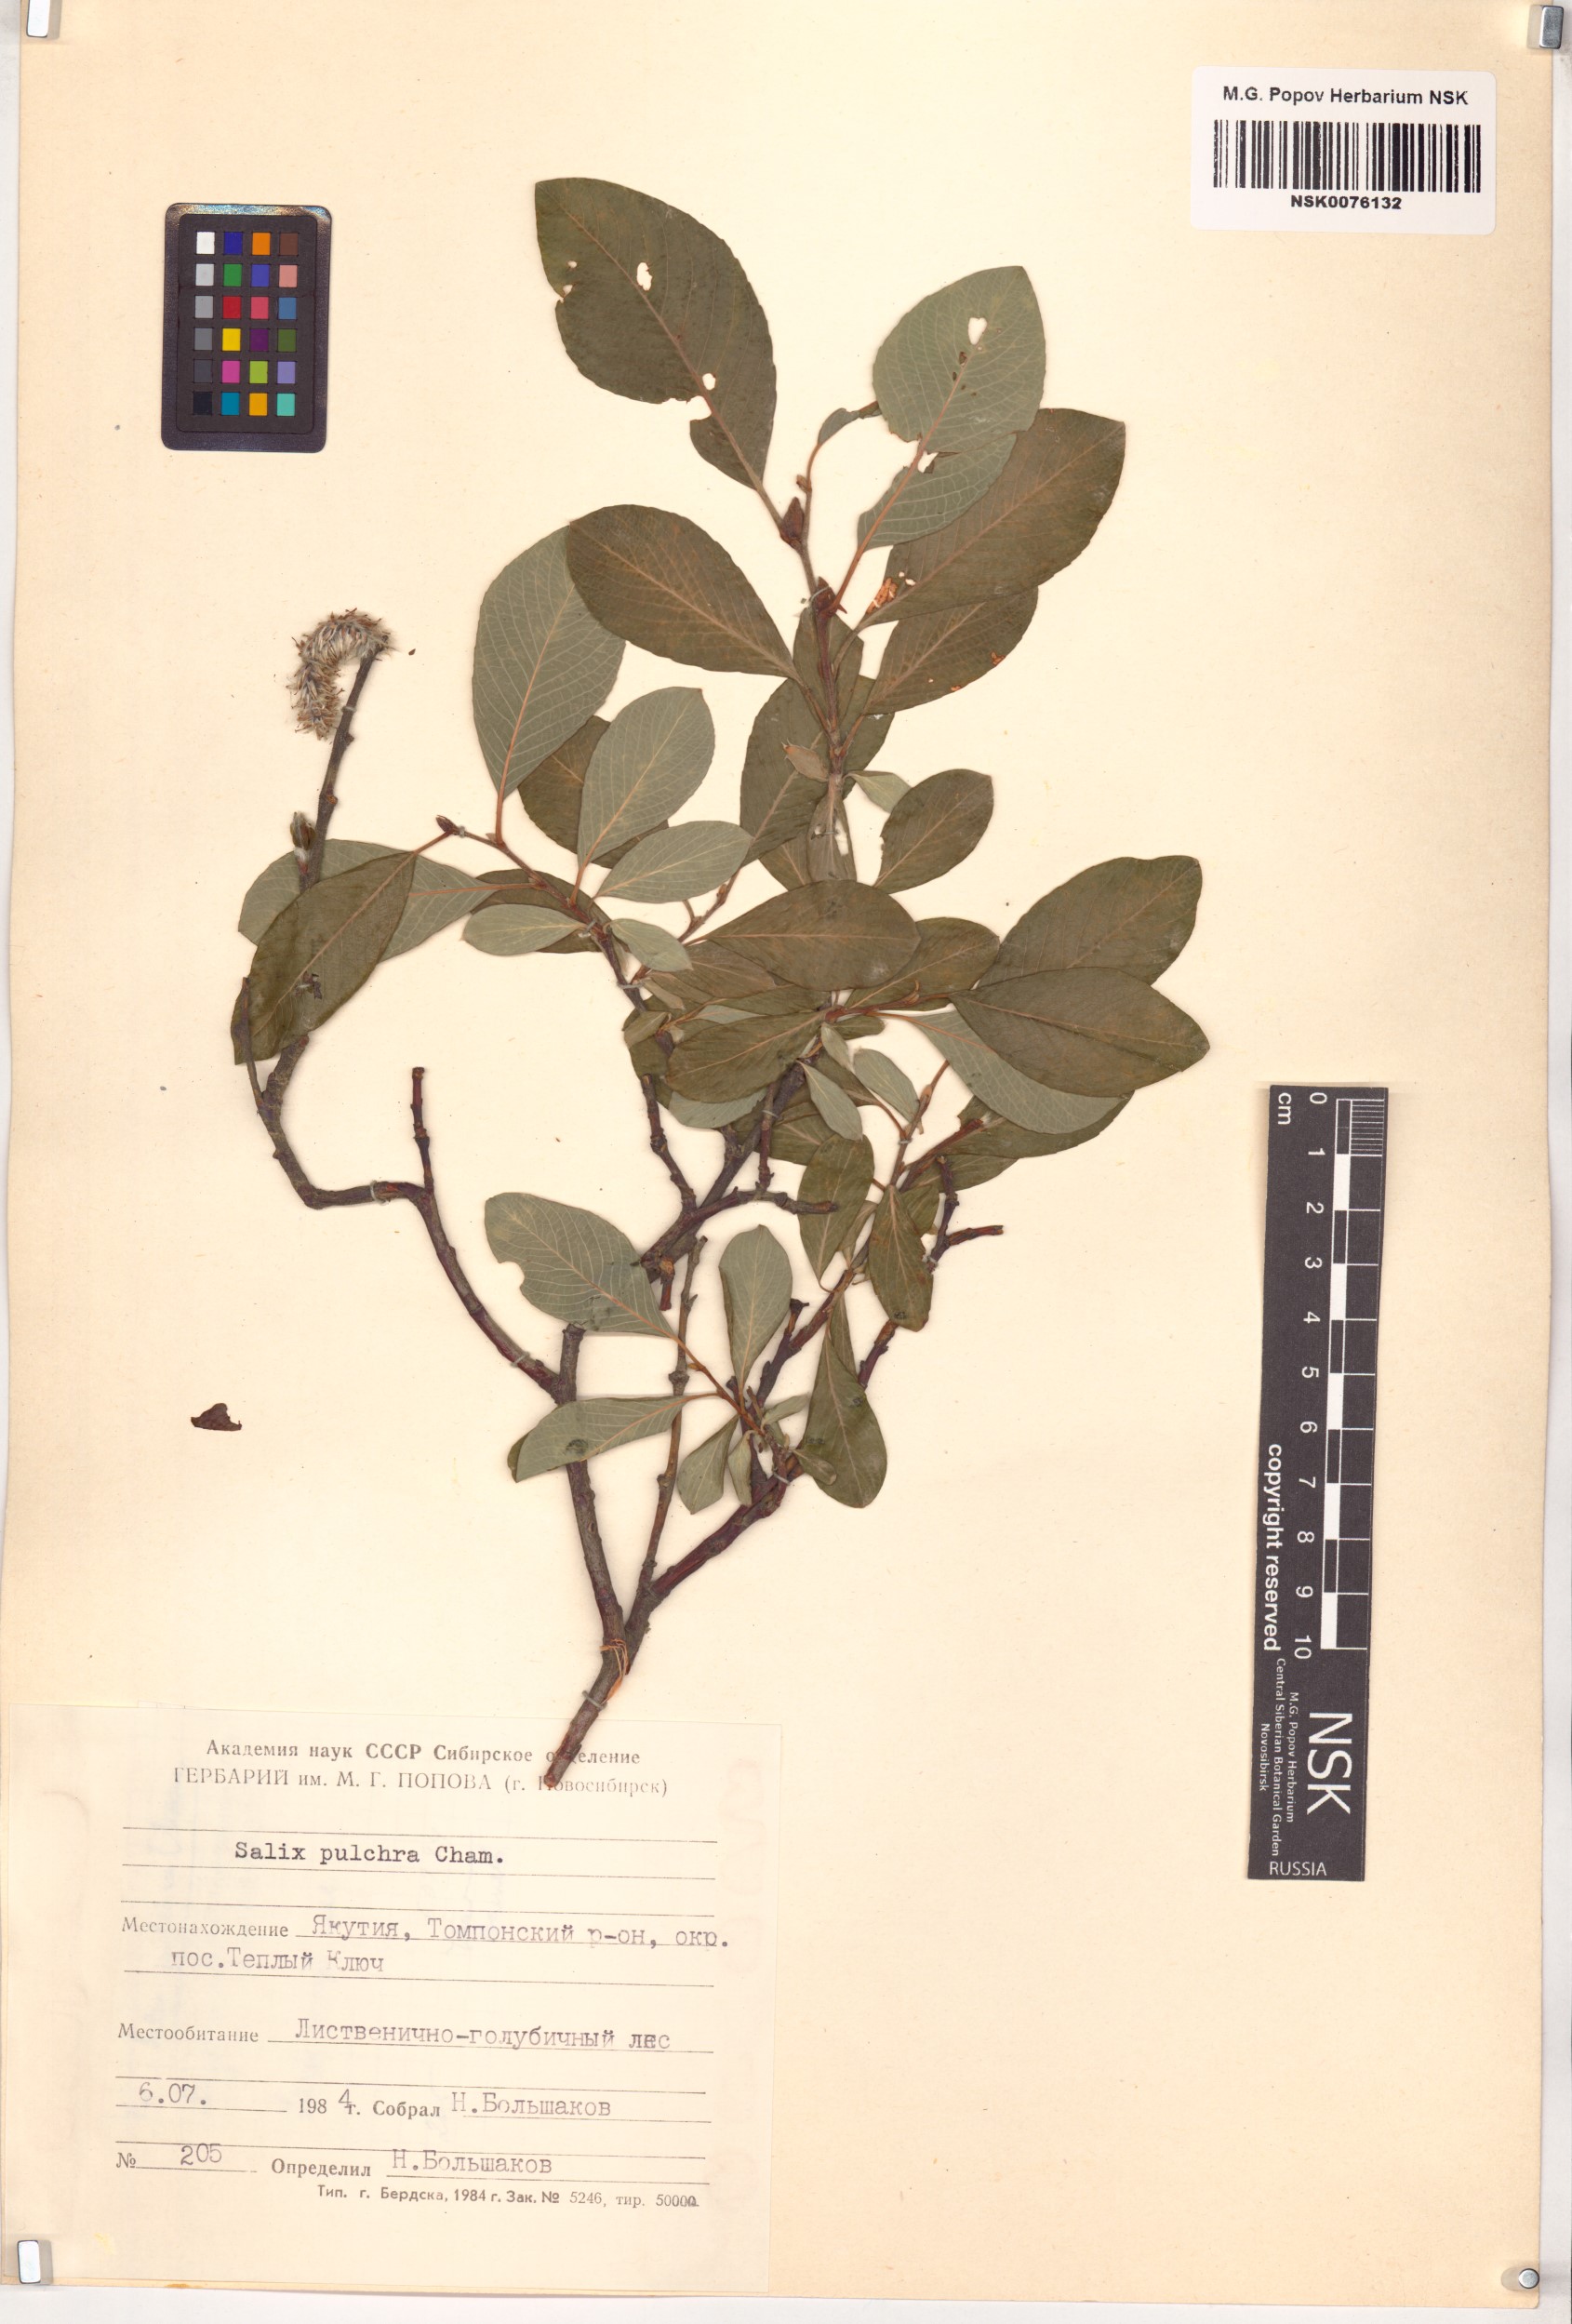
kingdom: Plantae
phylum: Tracheophyta
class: Magnoliopsida
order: Malpighiales
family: Salicaceae
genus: Salix
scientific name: Salix pulchra
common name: Diamond-leaved willow
